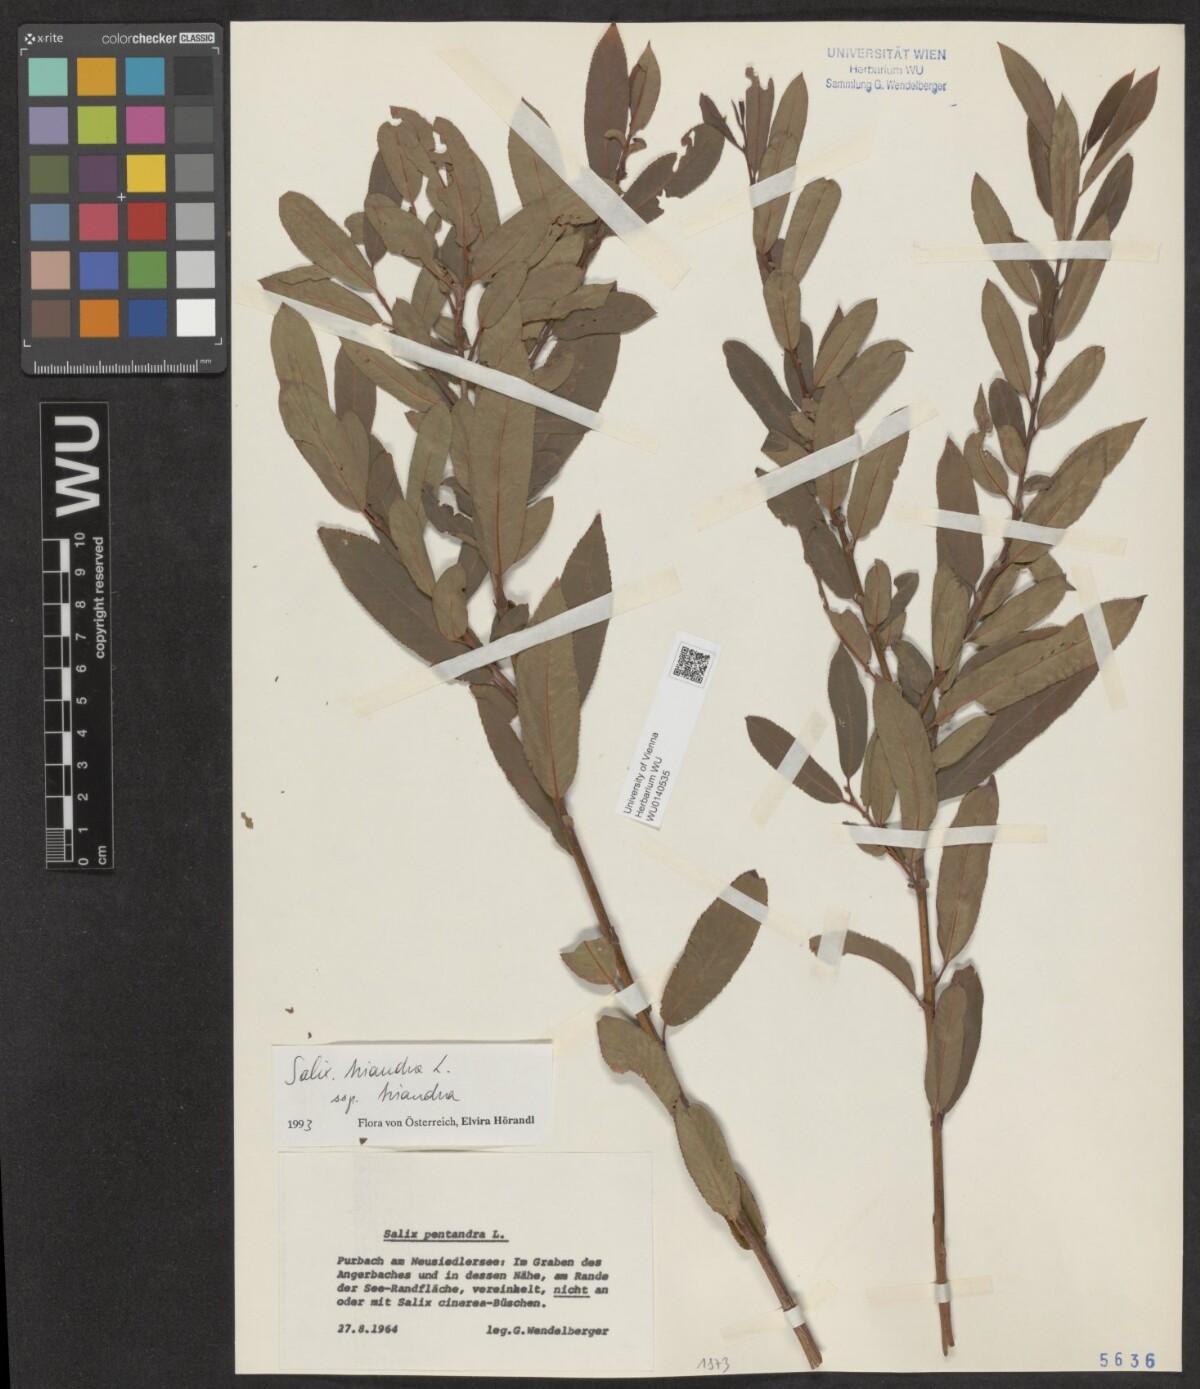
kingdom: Plantae
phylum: Tracheophyta
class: Magnoliopsida
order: Malpighiales
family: Salicaceae
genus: Salix
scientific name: Salix triandra
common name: Almond willow
